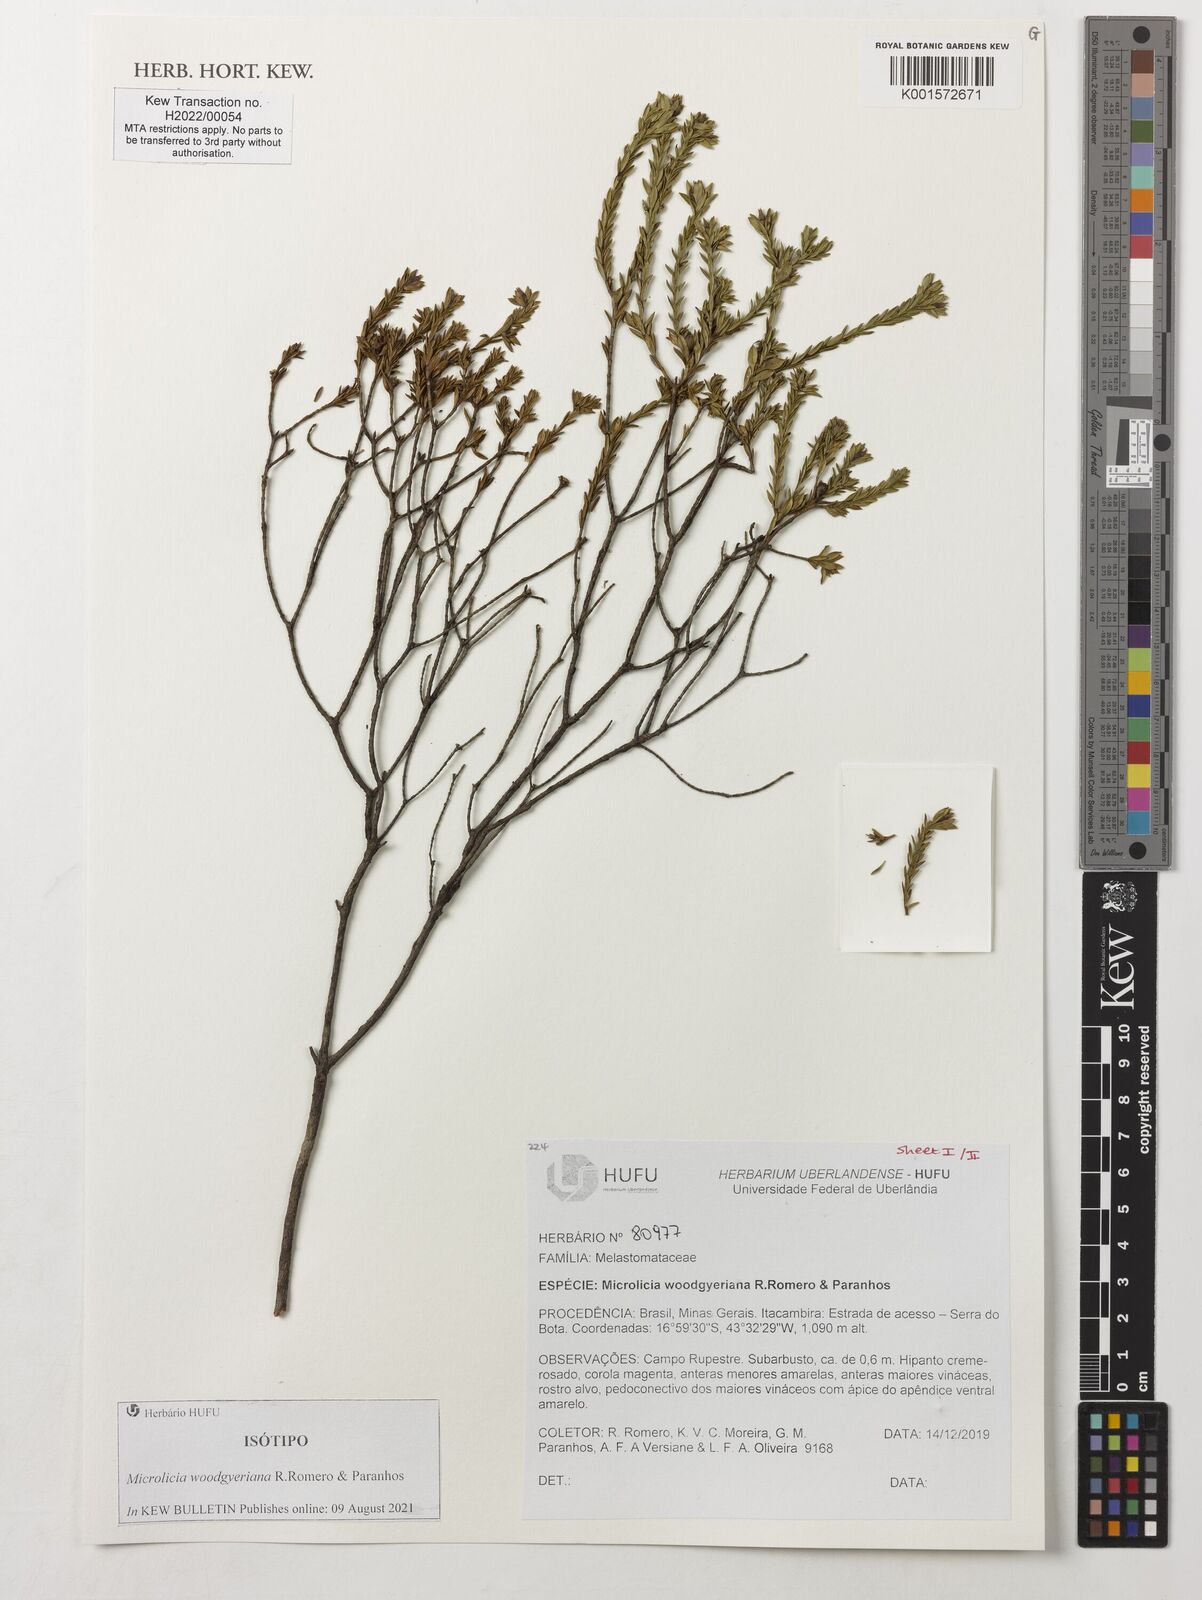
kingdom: Plantae
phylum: Tracheophyta
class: Magnoliopsida
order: Myrtales
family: Melastomataceae
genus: Microlicia
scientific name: Microlicia
